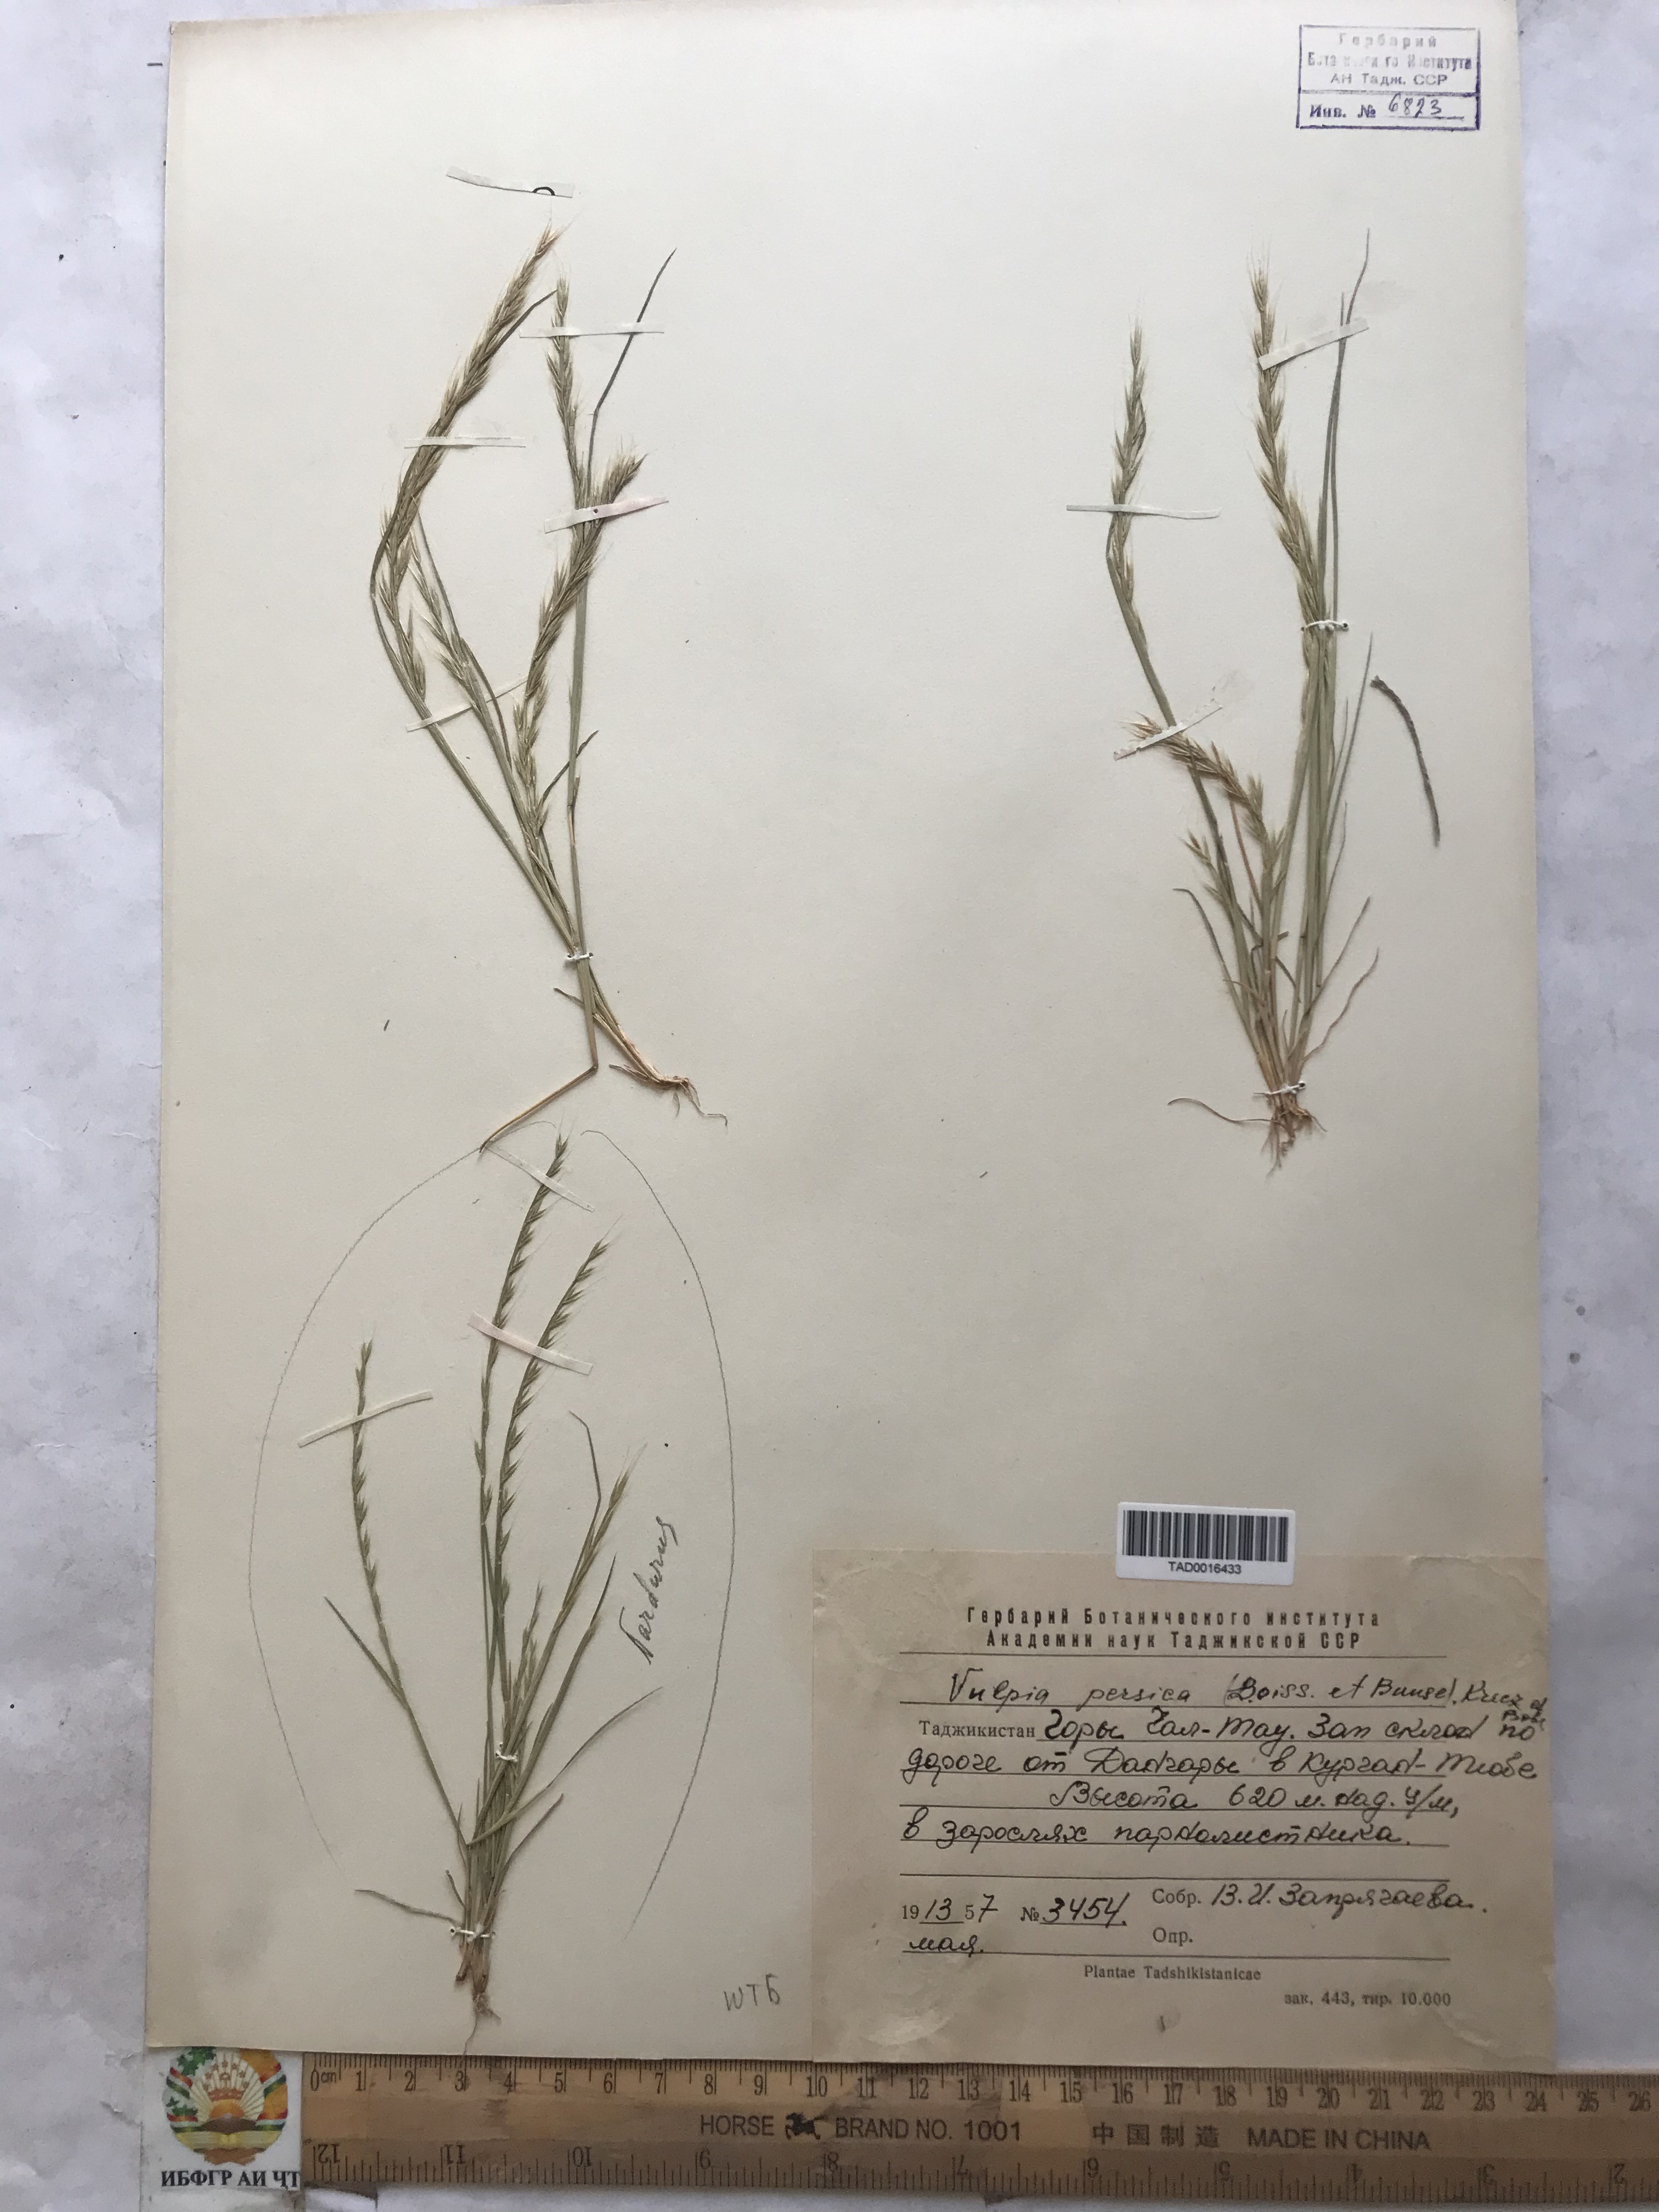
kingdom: Plantae
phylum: Tracheophyta
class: Liliopsida
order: Poales
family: Poaceae
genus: Festuca
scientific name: Festuca Vulpia persica
